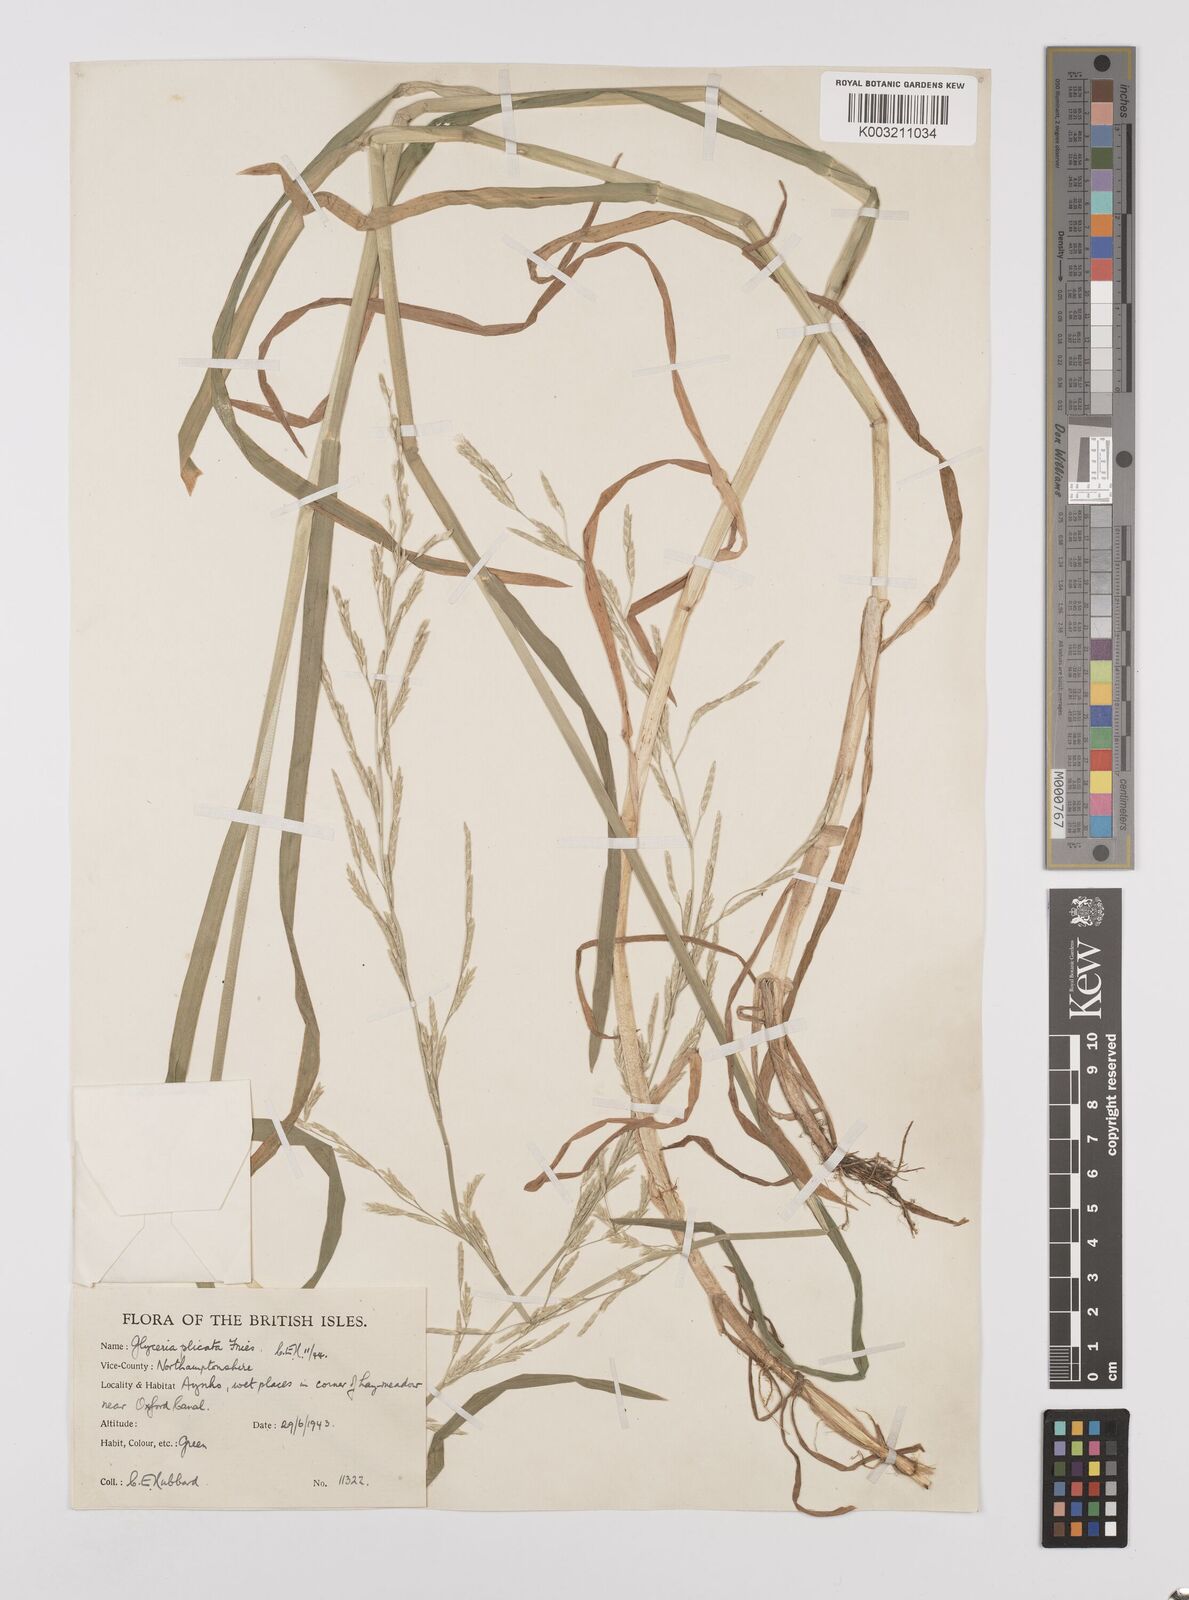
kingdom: Plantae
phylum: Tracheophyta
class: Liliopsida
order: Poales
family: Poaceae
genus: Glyceria
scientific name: Glyceria notata
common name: Plicate sweet-grass
